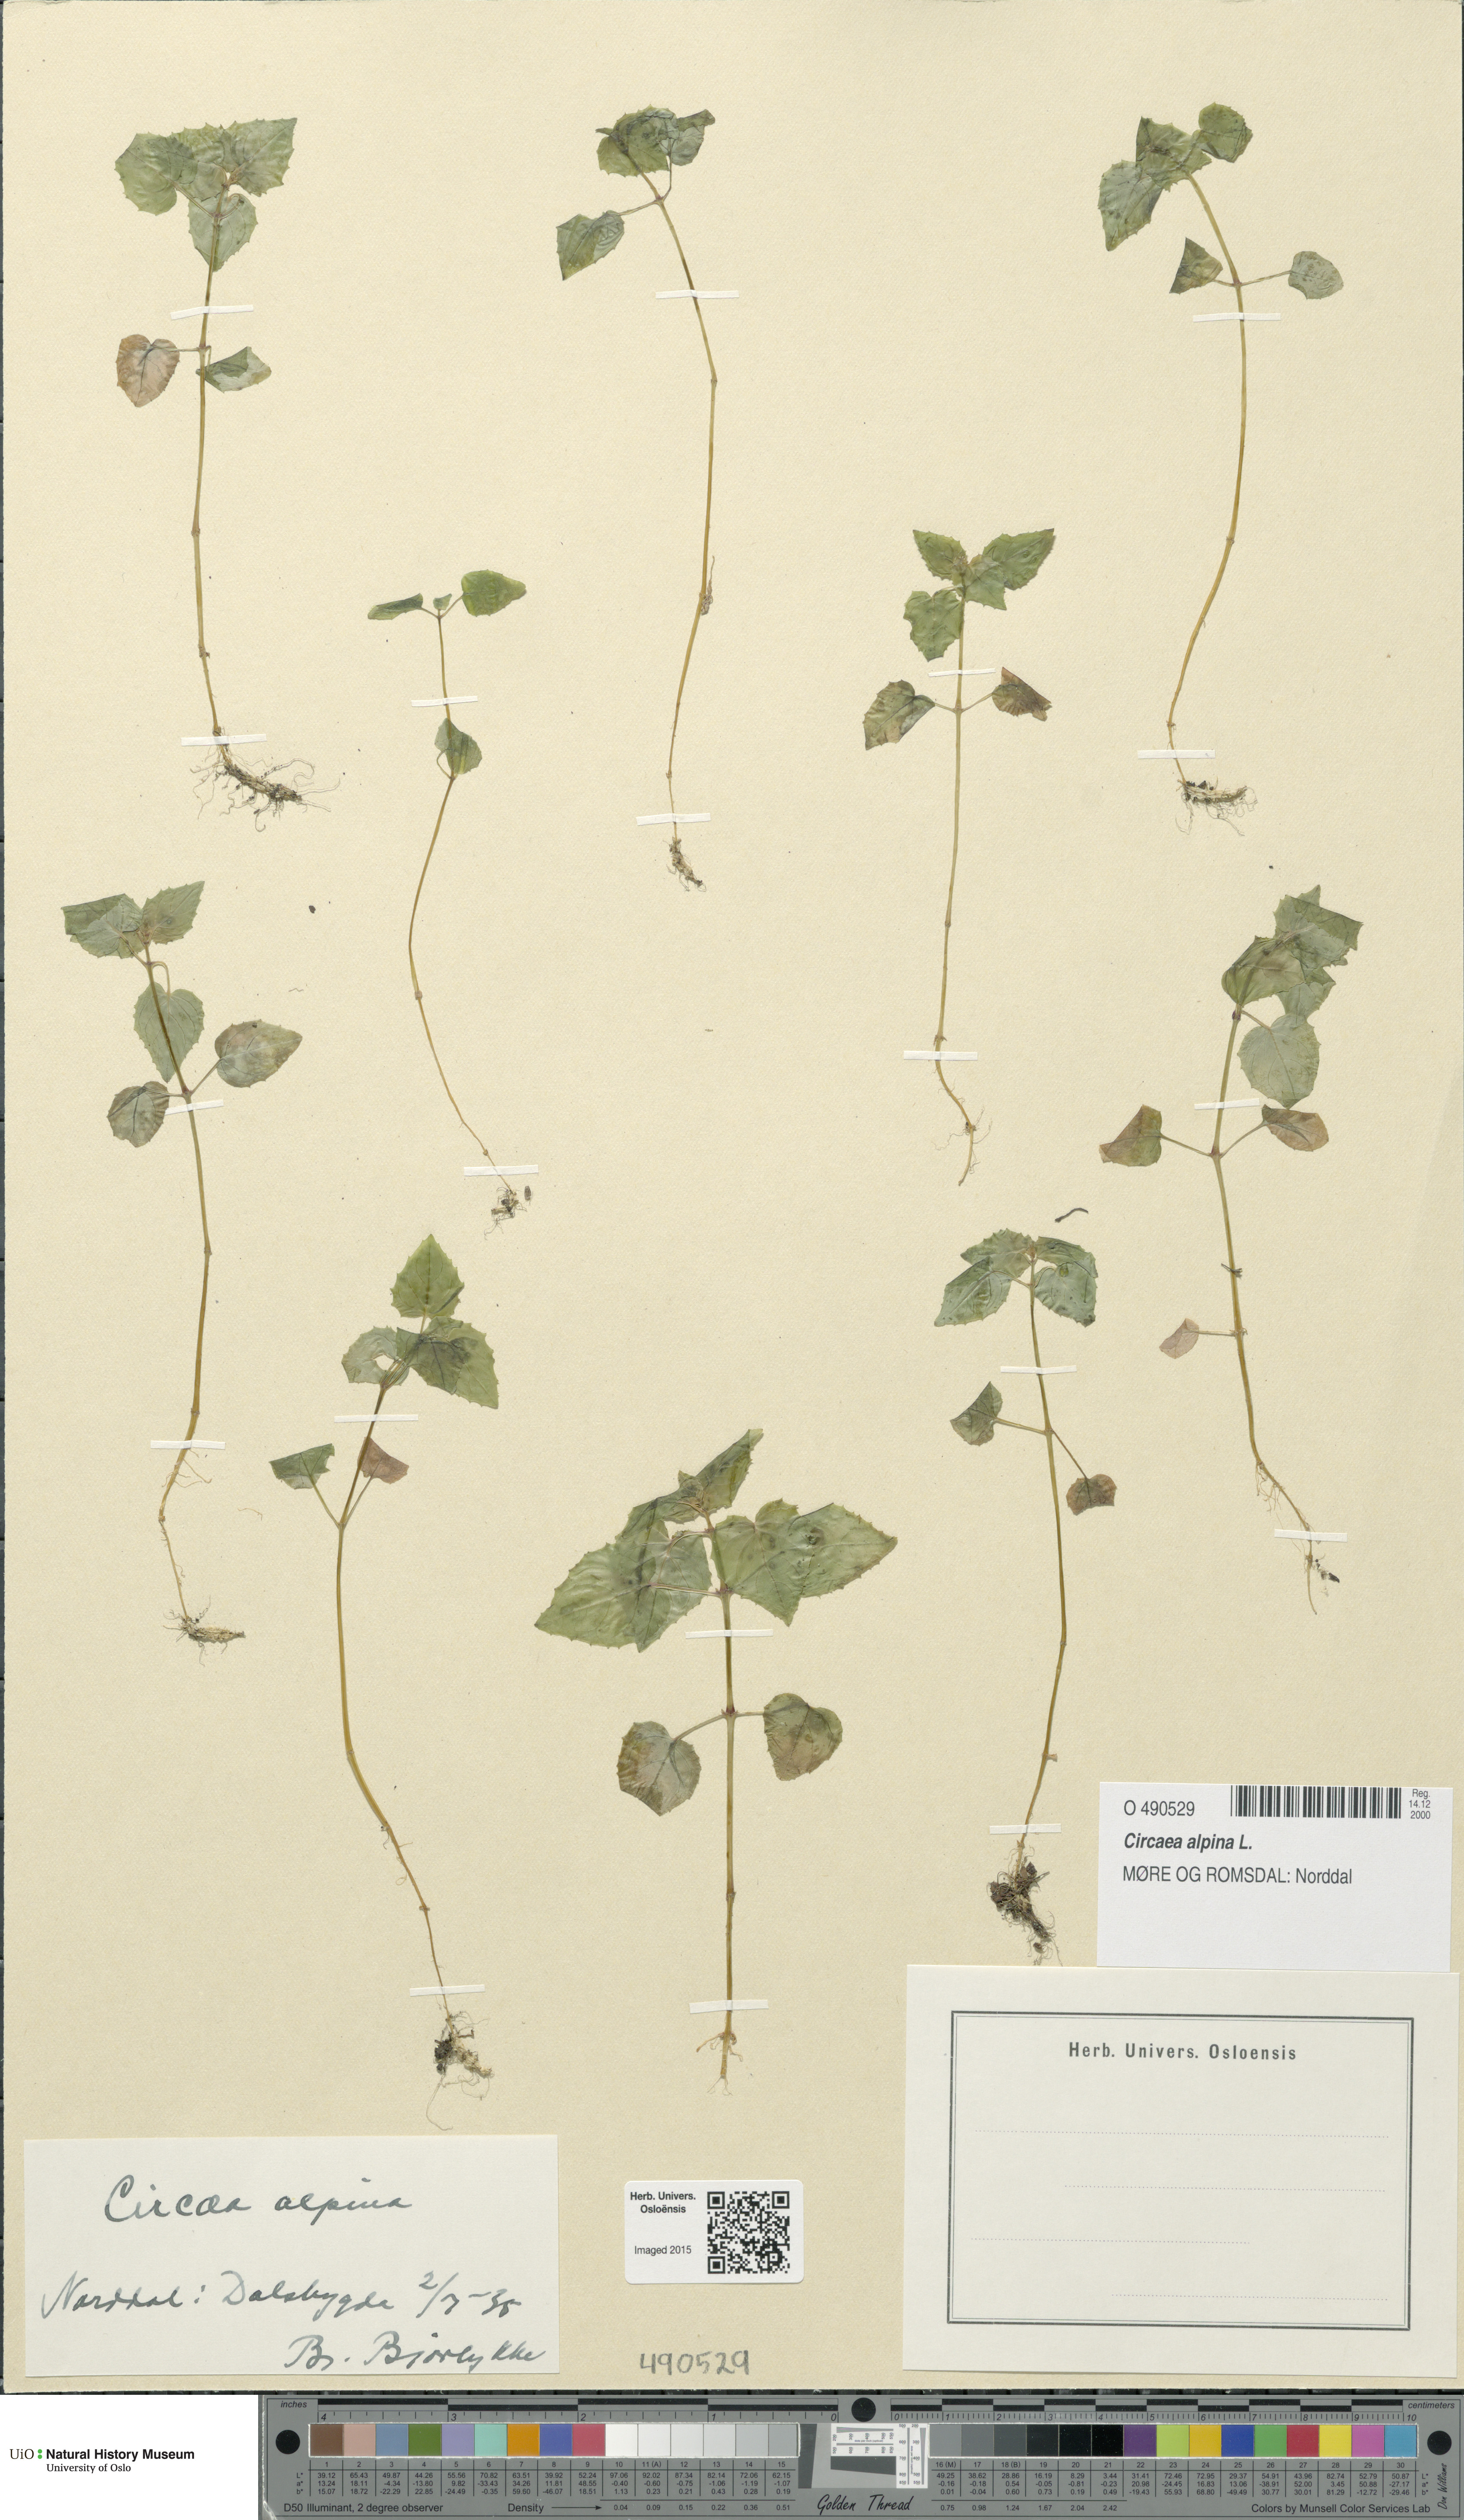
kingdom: Plantae
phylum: Tracheophyta
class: Magnoliopsida
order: Myrtales
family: Onagraceae
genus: Circaea
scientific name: Circaea alpina
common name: Alpine enchanter's-nightshade
